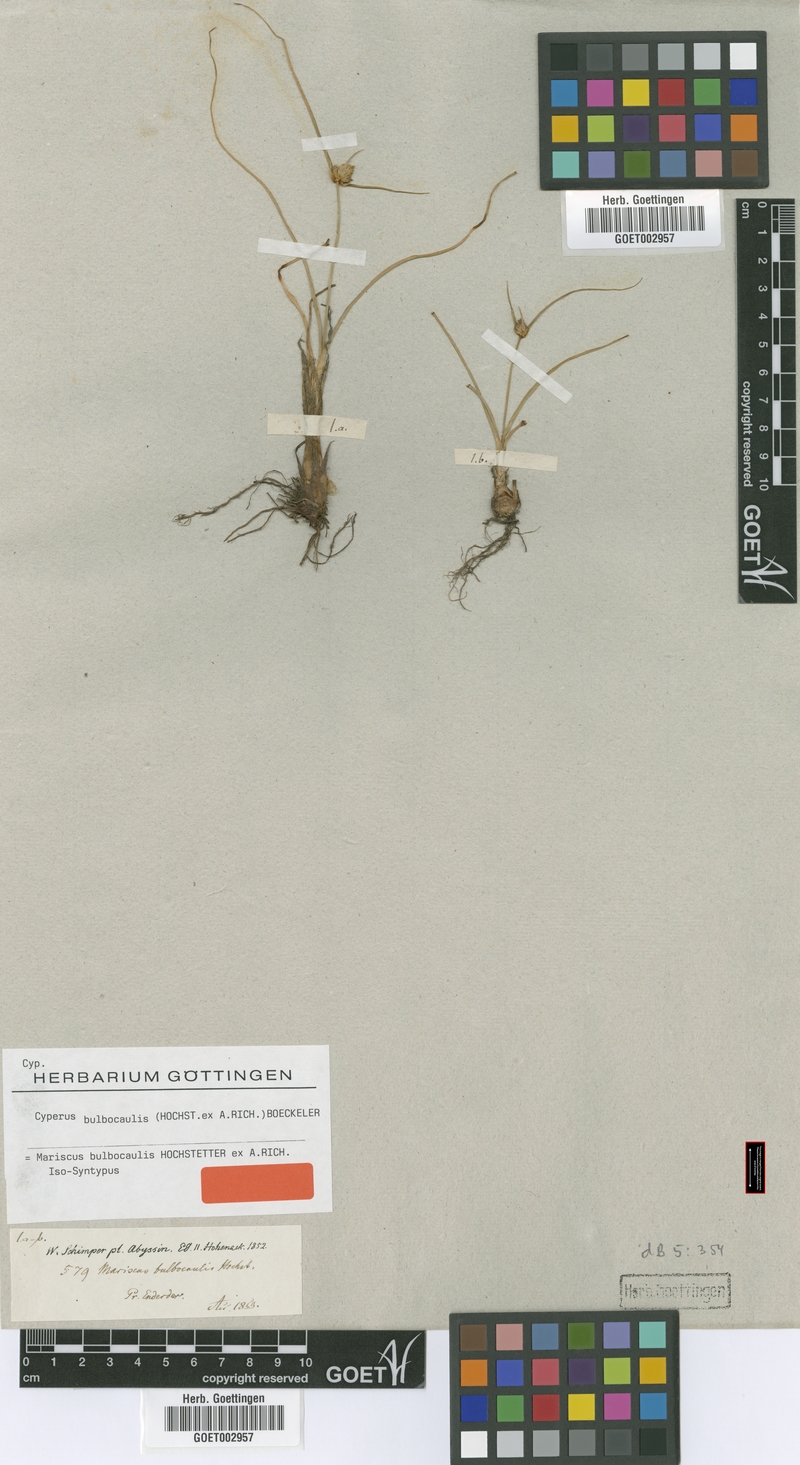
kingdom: Plantae
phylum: Tracheophyta
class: Liliopsida
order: Poales
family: Cyperaceae
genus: Cyperus
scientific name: Cyperus plateilema
